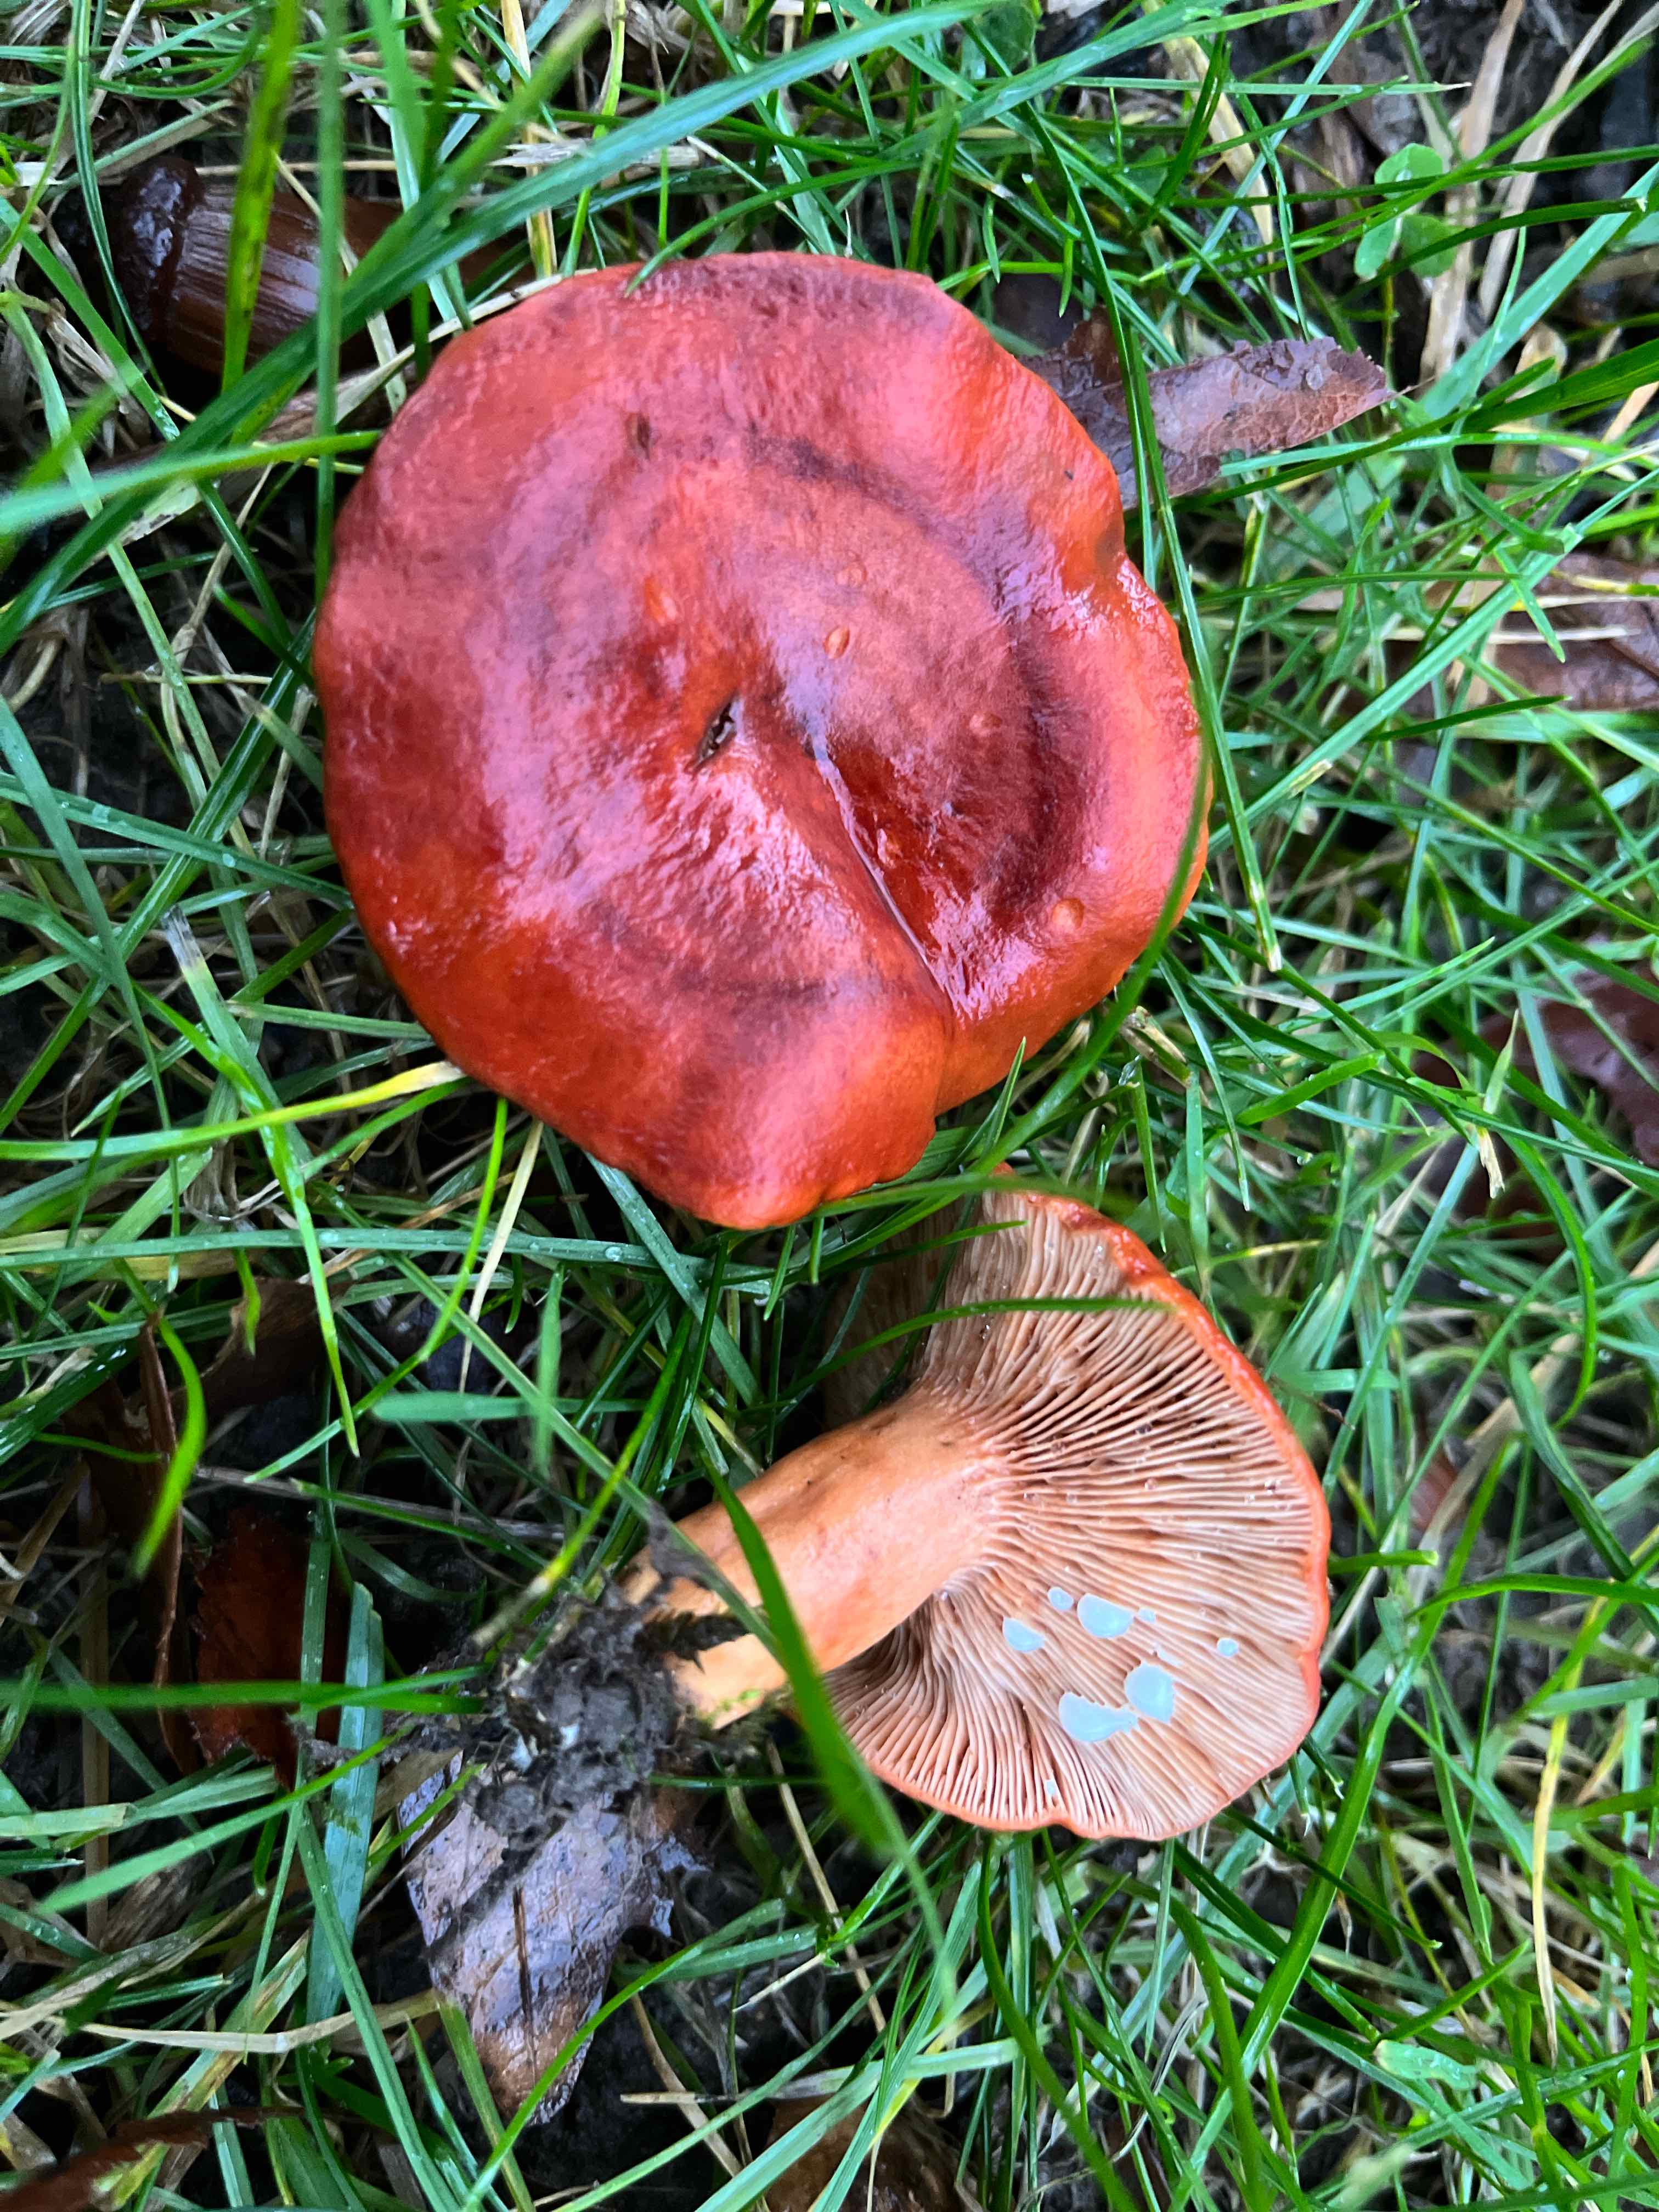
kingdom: Fungi
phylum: Basidiomycota
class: Agaricomycetes
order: Russulales
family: Russulaceae
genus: Lactarius
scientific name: Lactarius fulvissimus
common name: ræve-mælkehat
